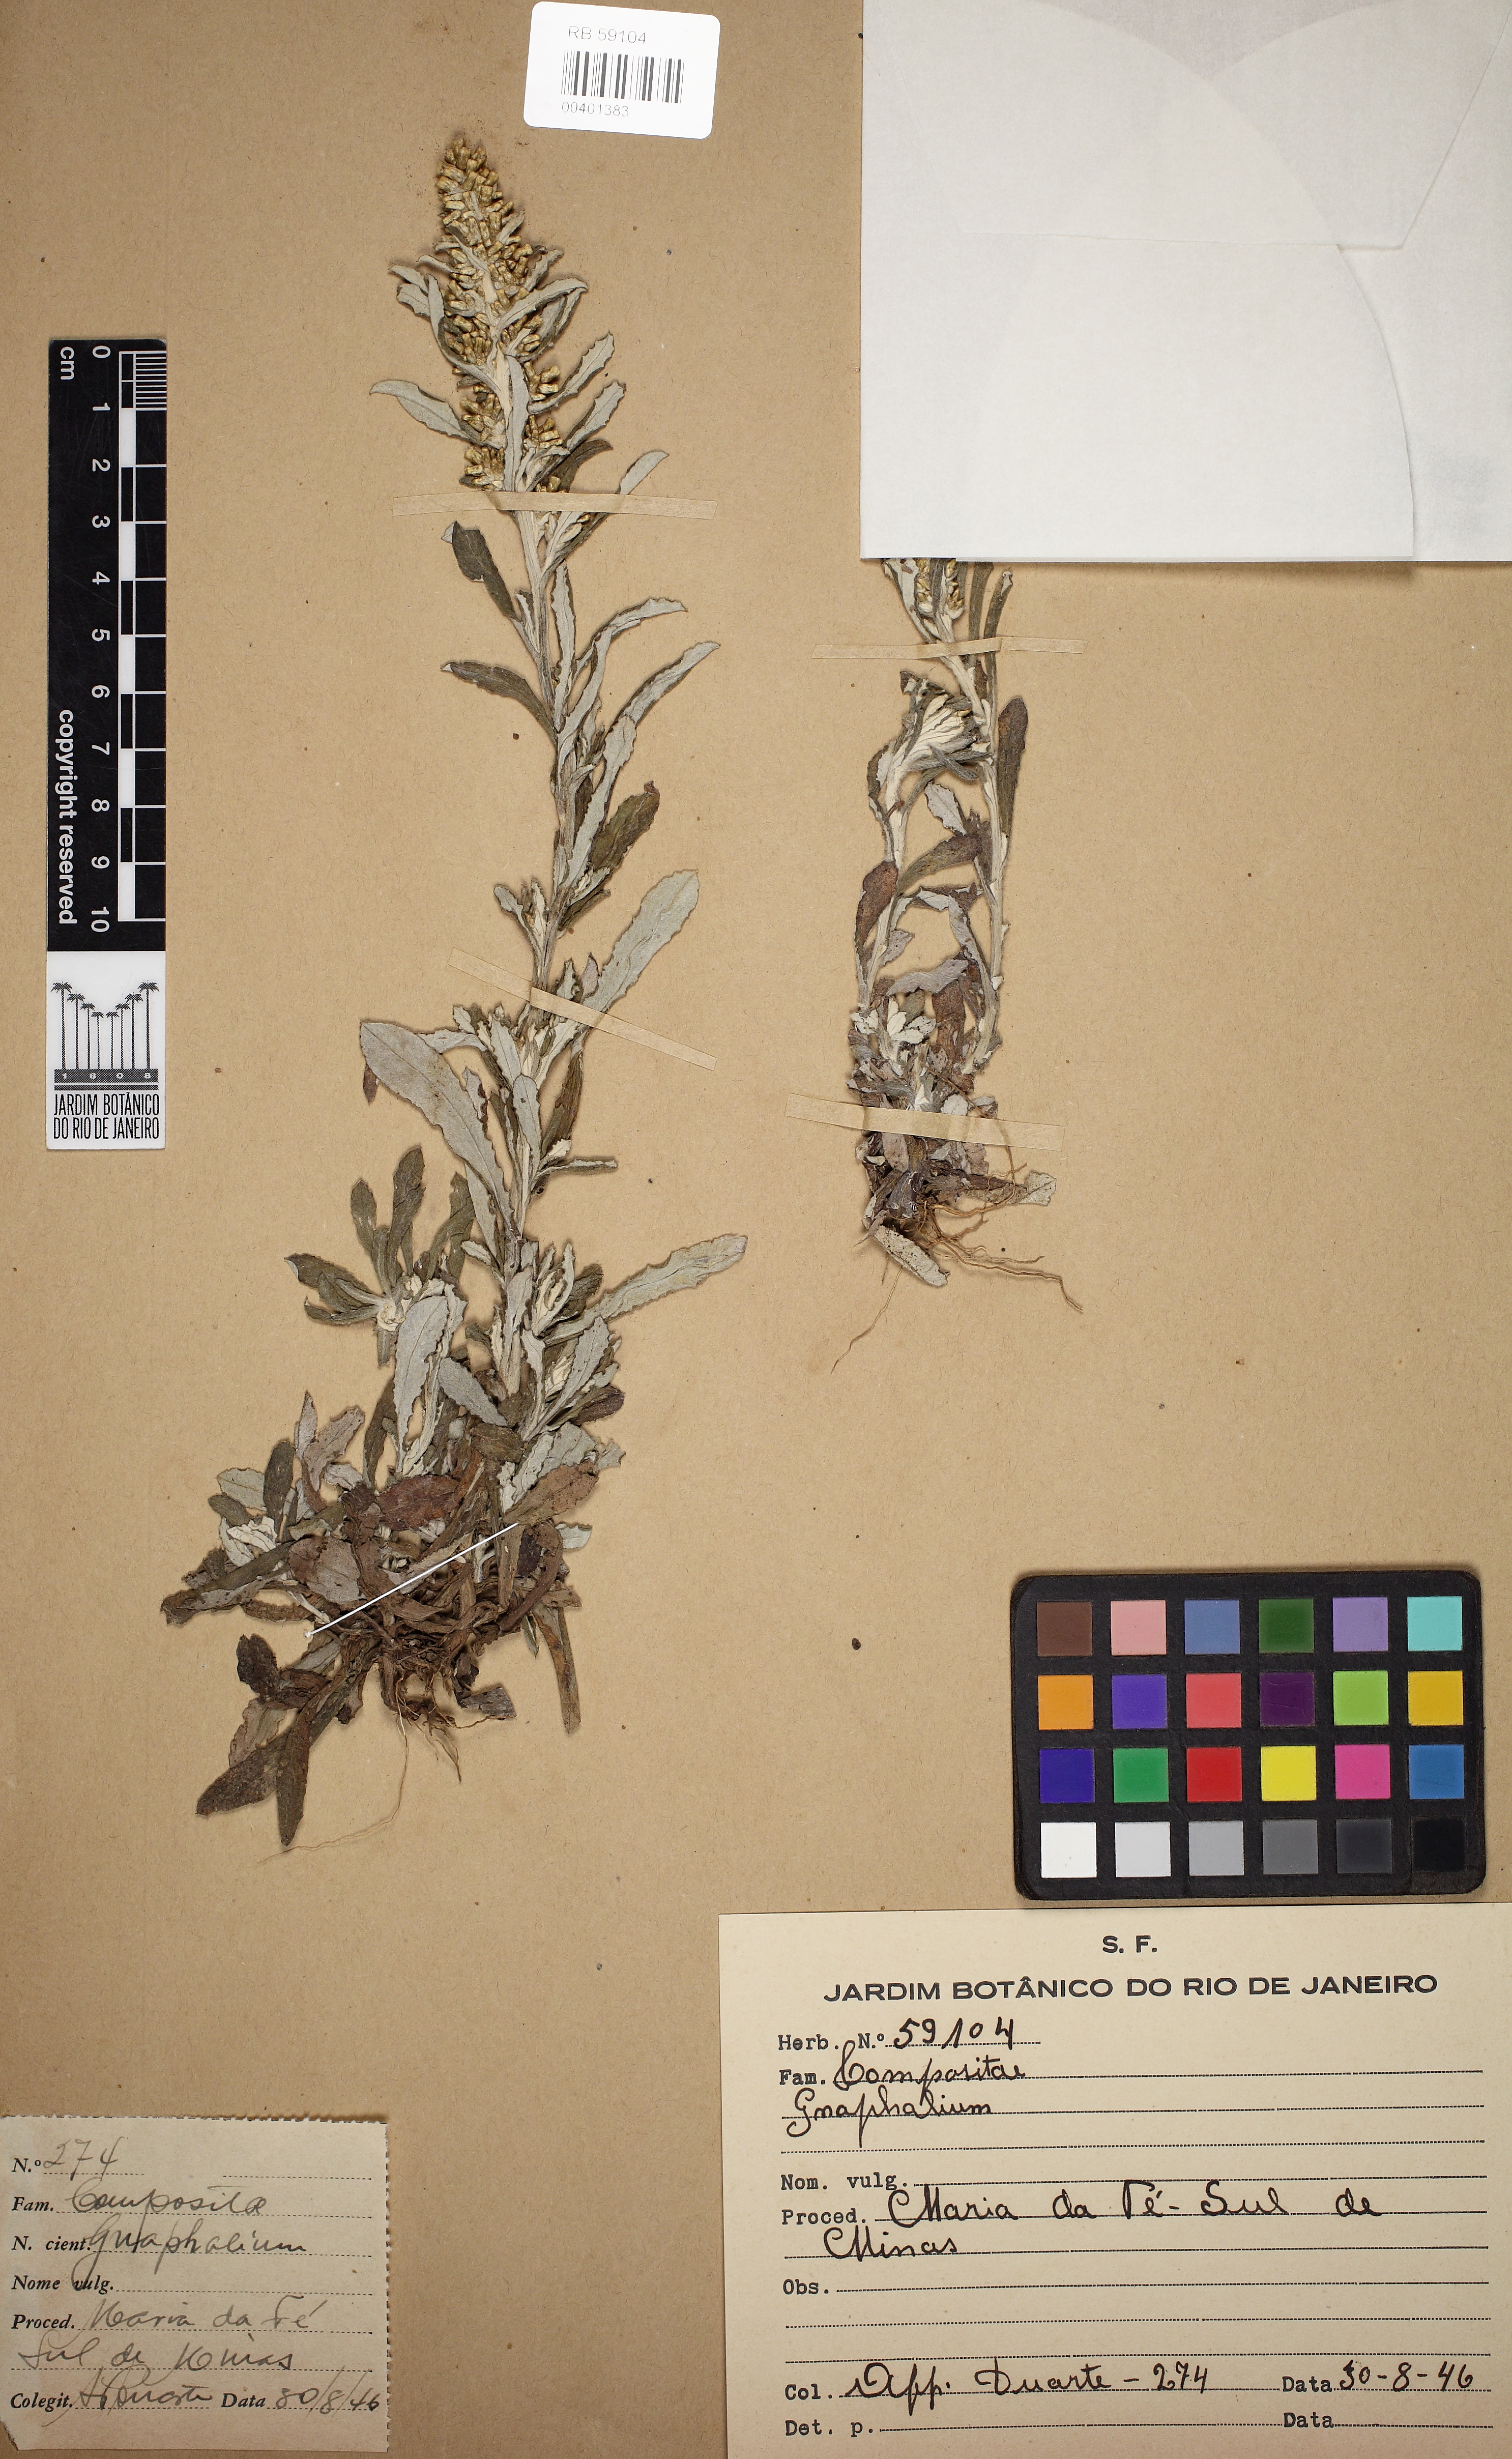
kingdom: Plantae
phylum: Tracheophyta
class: Magnoliopsida
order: Asterales
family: Asteraceae
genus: Pseudognaphalium
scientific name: Pseudognaphalium
